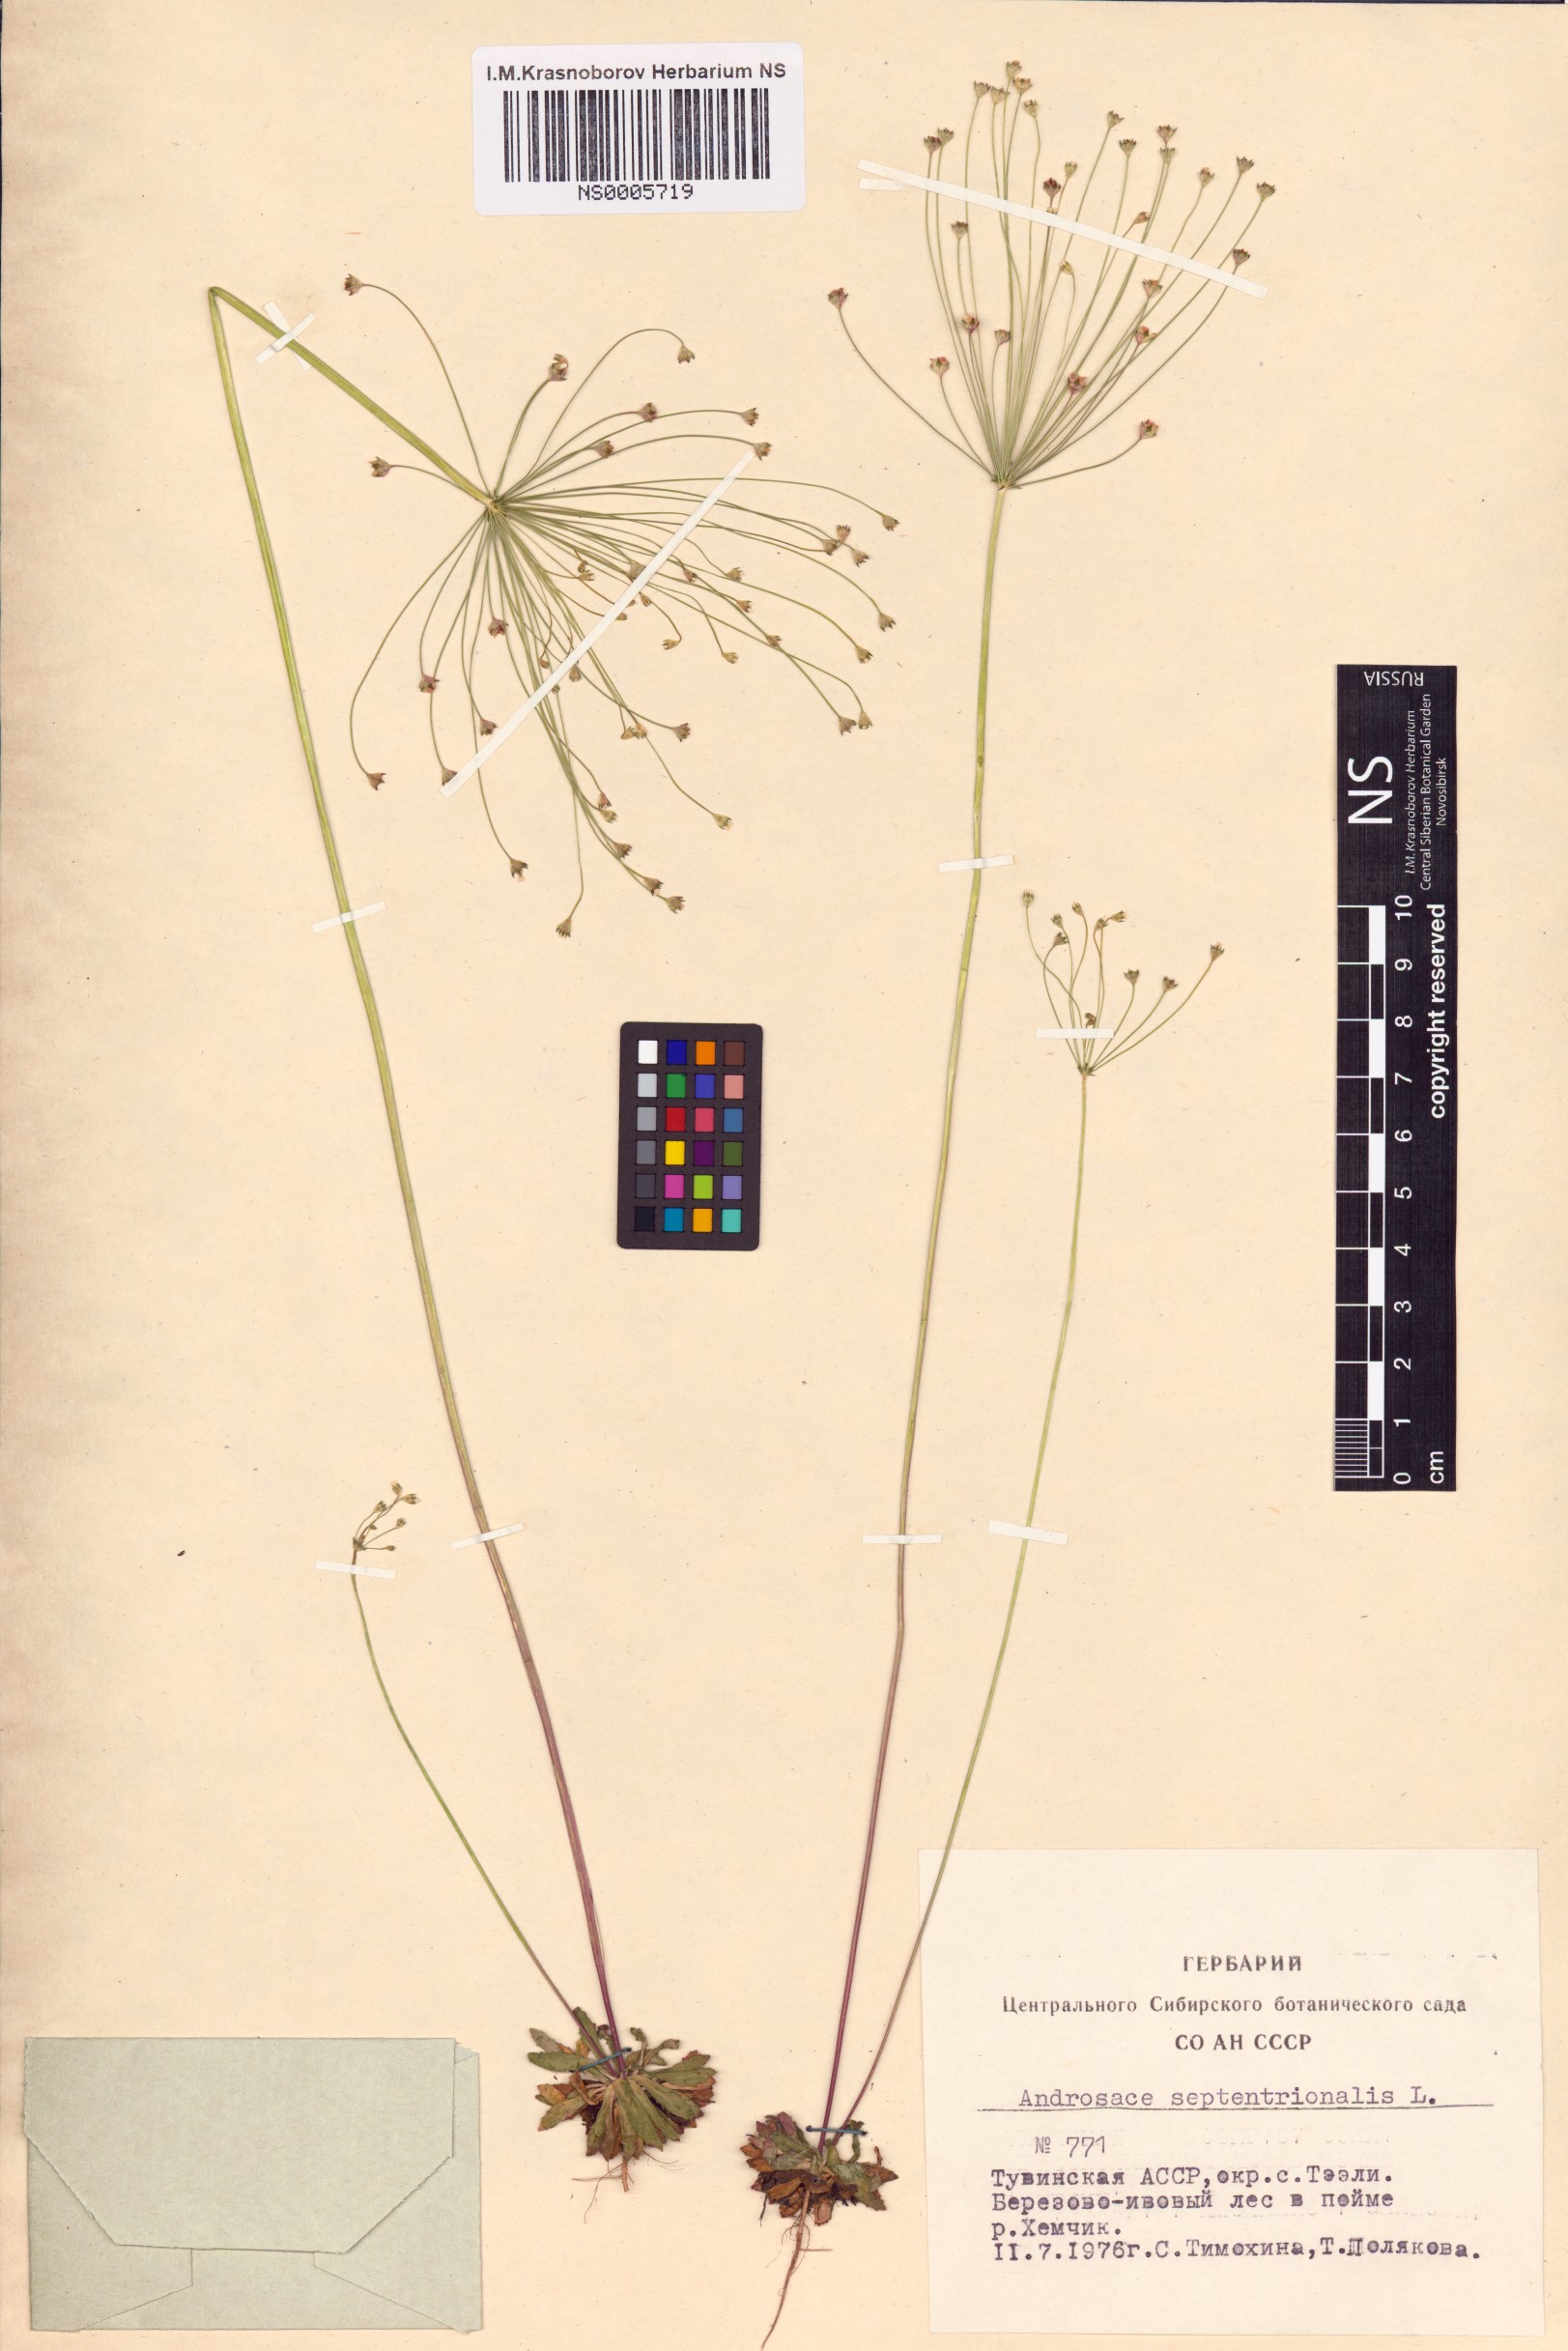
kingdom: Plantae
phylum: Tracheophyta
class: Magnoliopsida
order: Ericales
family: Primulaceae
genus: Androsace
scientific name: Androsace septentrionalis
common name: Hairy northern fairy-candelabra
